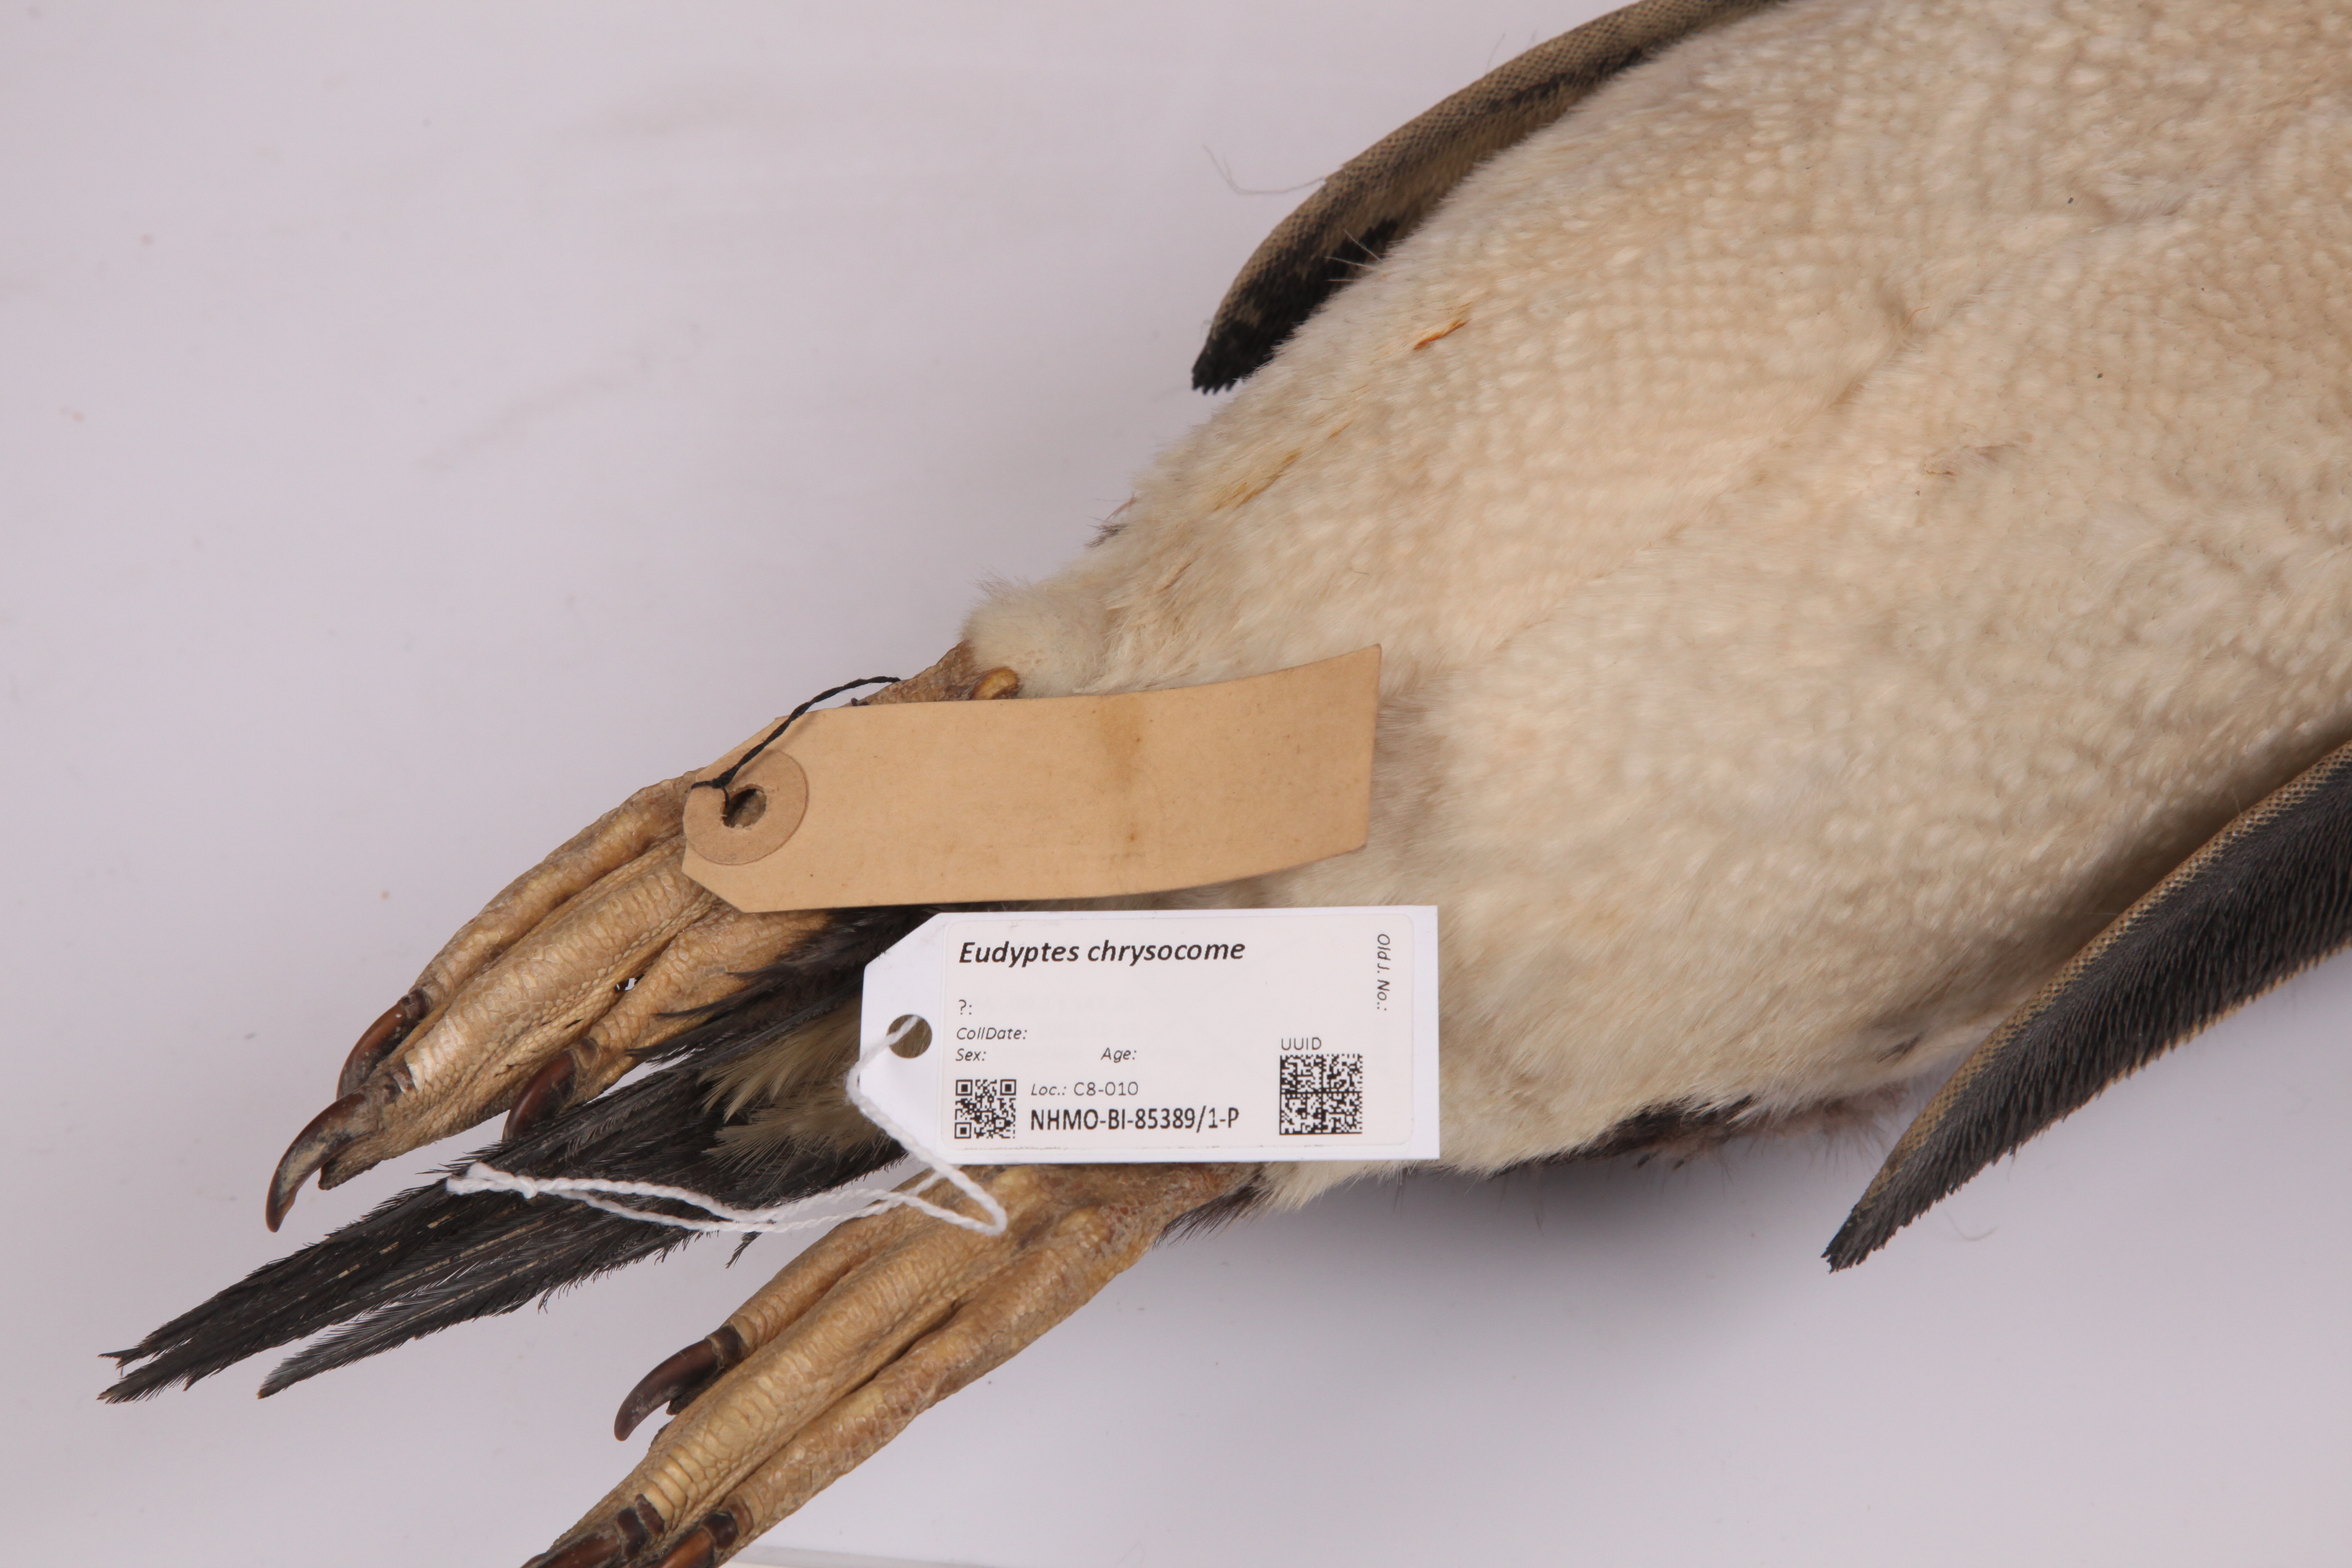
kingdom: Animalia
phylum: Chordata
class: Aves
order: Sphenisciformes
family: Spheniscidae
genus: Eudyptes
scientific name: Eudyptes chrysocome
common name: Southern rockhopper penguin
